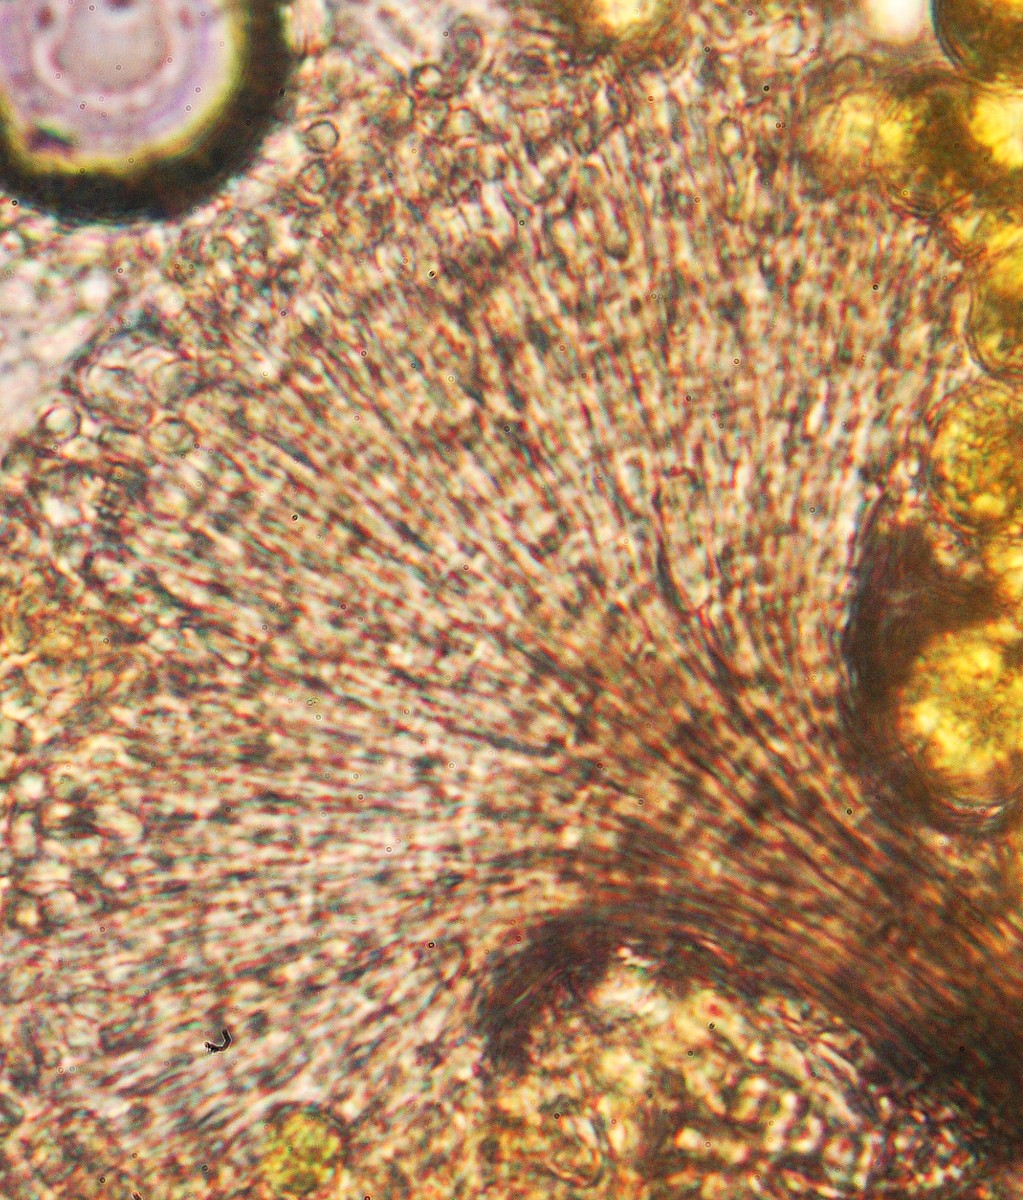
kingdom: Fungi
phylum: Ascomycota
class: Sordariomycetes
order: Microascales
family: Microascaceae
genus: Cephalotrichum
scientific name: Cephalotrichum purpureofuscum
